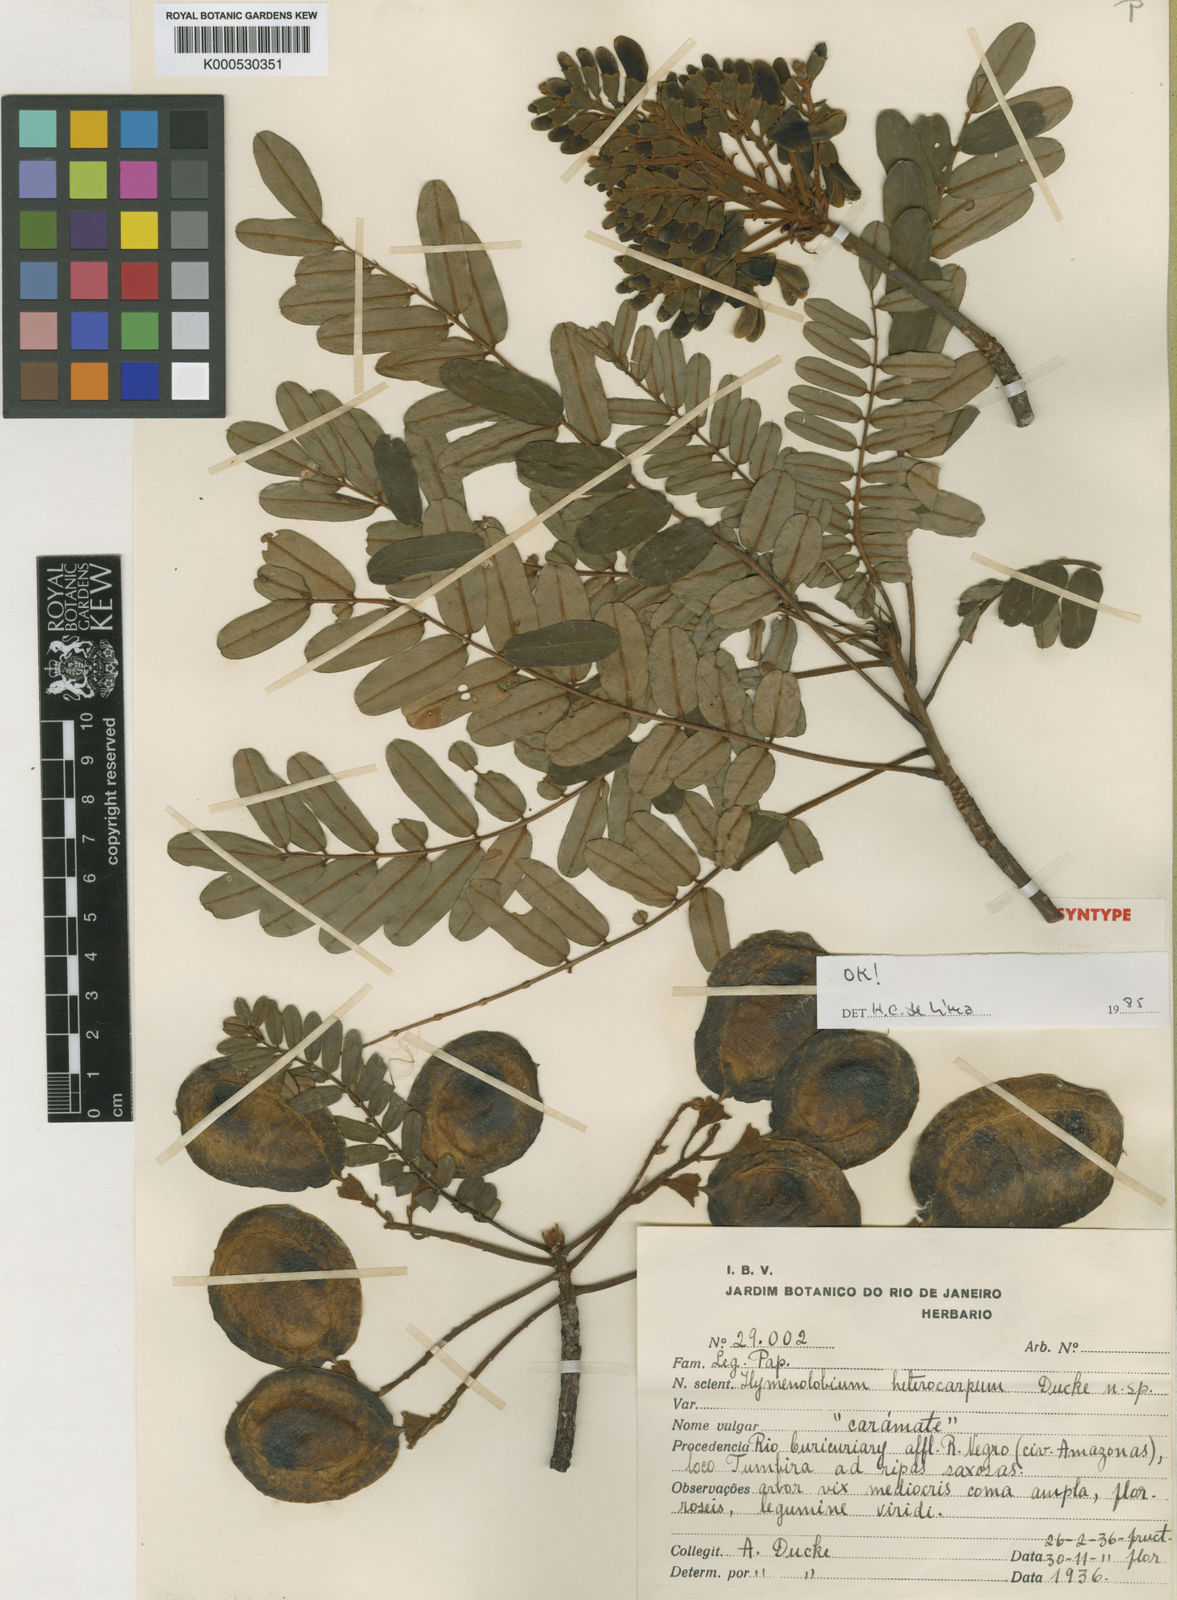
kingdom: Plantae
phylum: Tracheophyta
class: Magnoliopsida
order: Fabales
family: Fabaceae
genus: Hymenolobium
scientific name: Hymenolobium heterocarpum
